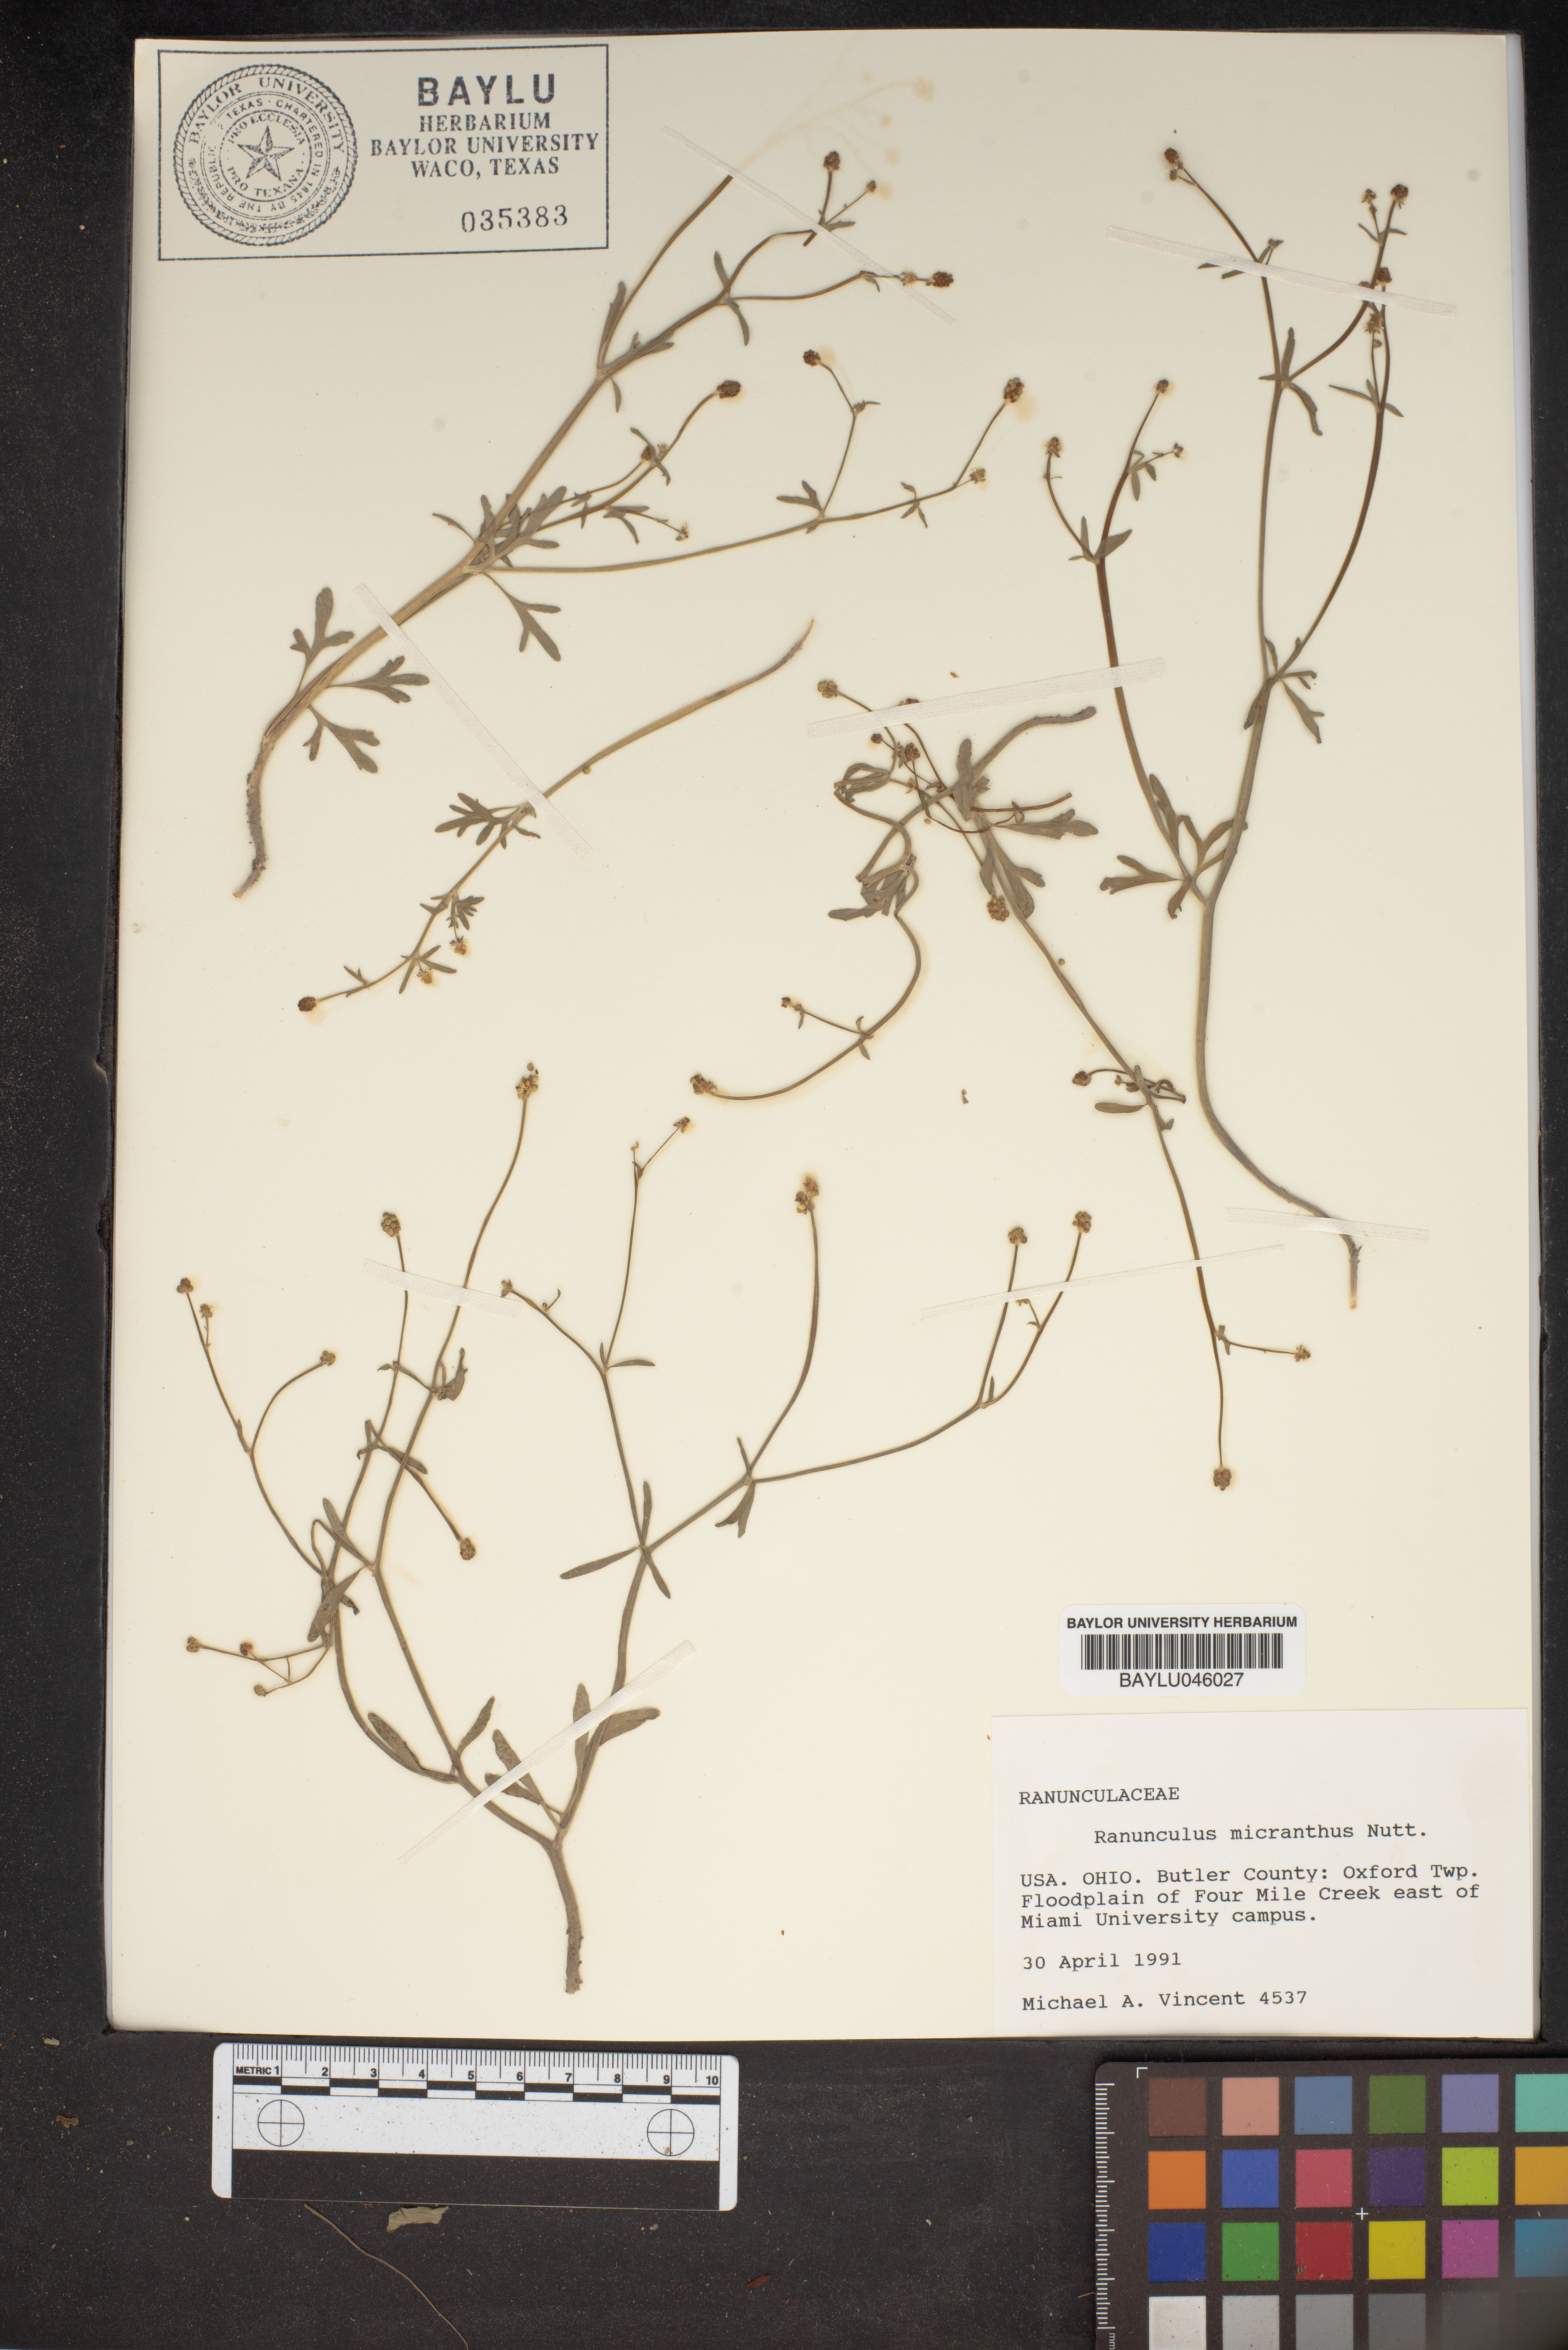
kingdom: Plantae
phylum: Tracheophyta
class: Magnoliopsida
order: Ranunculales
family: Ranunculaceae
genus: Ranunculus
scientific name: Ranunculus micranthus
